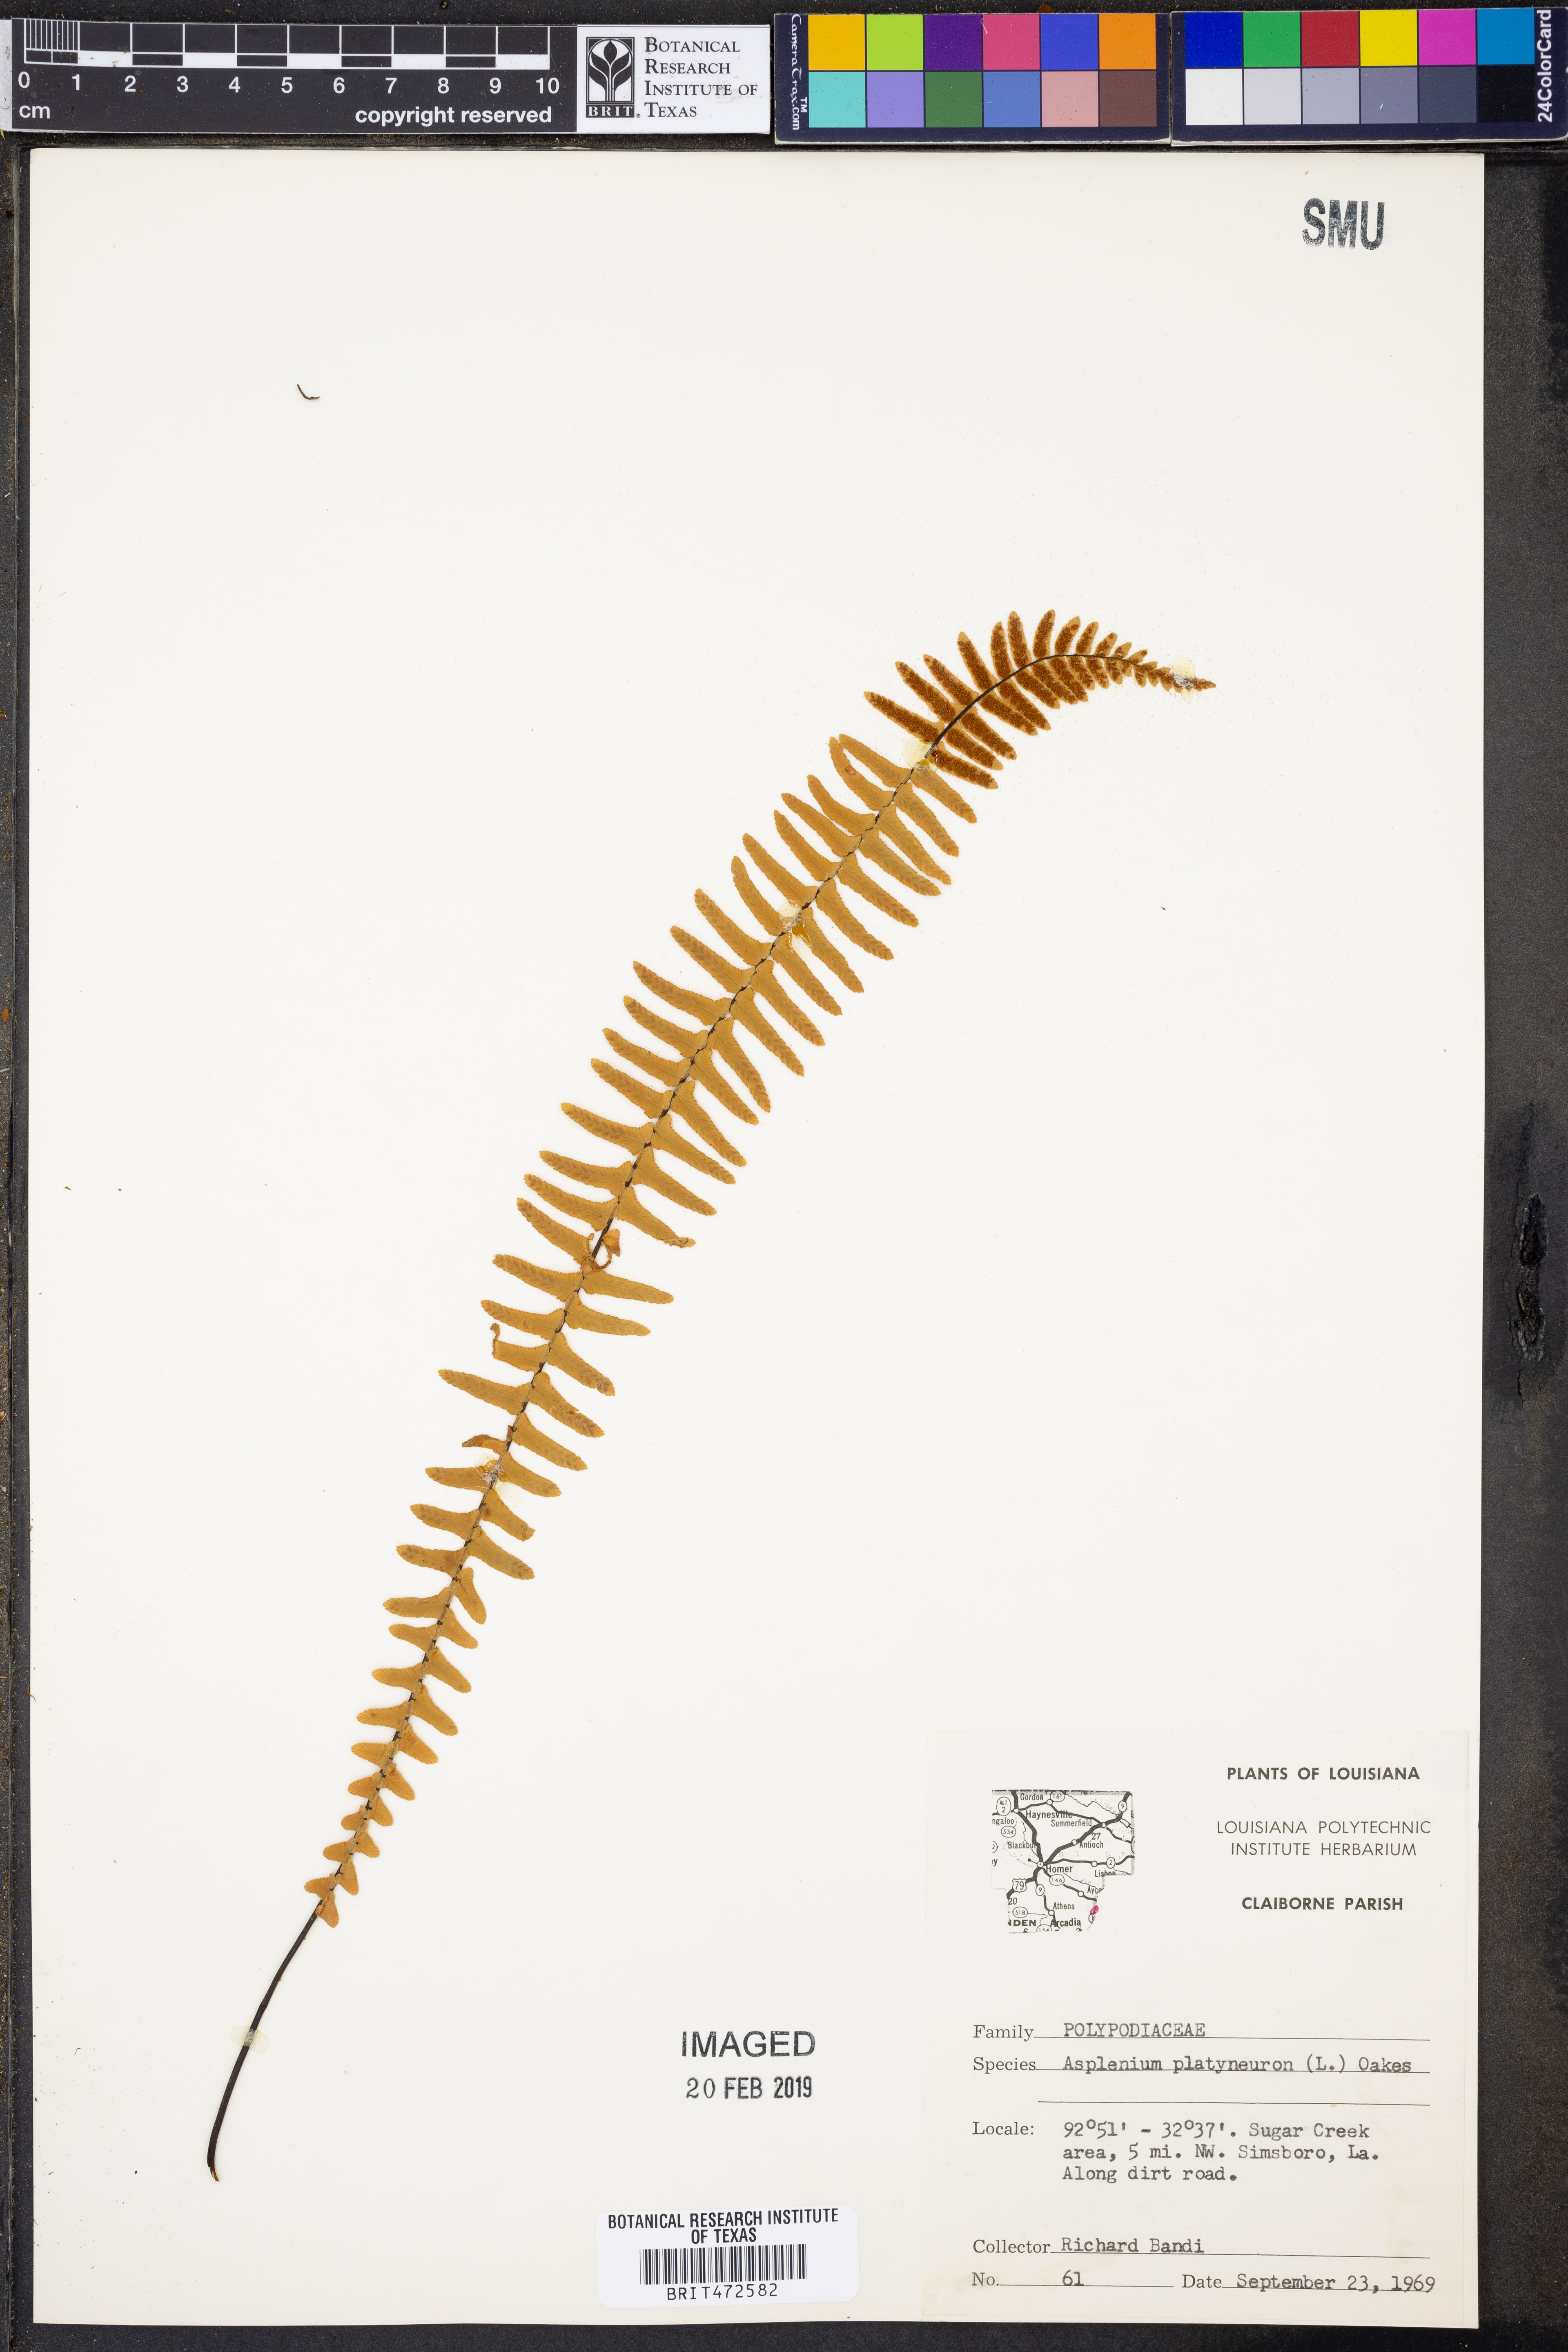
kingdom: Plantae
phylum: Tracheophyta
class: Polypodiopsida
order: Polypodiales
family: Aspleniaceae
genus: Asplenium
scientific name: Asplenium platyneuron
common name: Ebony spleenwort
